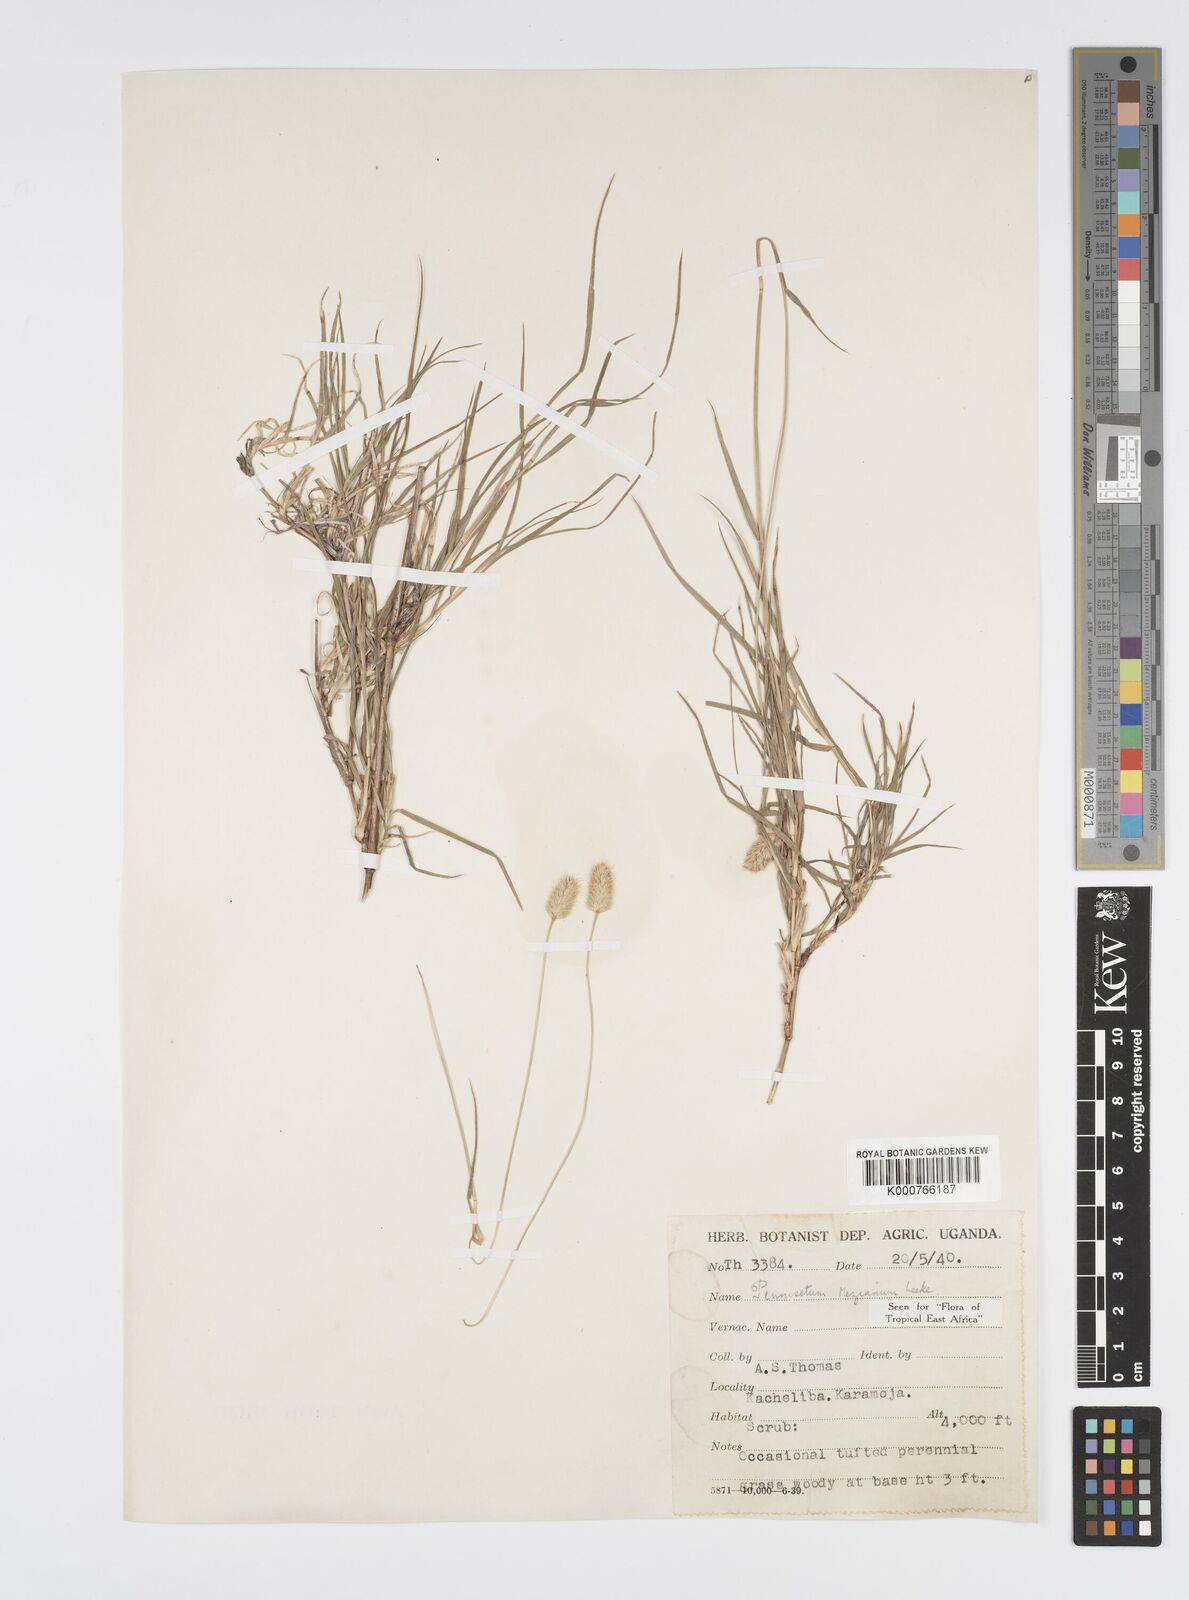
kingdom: Plantae
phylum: Tracheophyta
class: Liliopsida
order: Poales
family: Poaceae
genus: Cenchrus
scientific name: Cenchrus mezianus
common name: Bamboo grass
